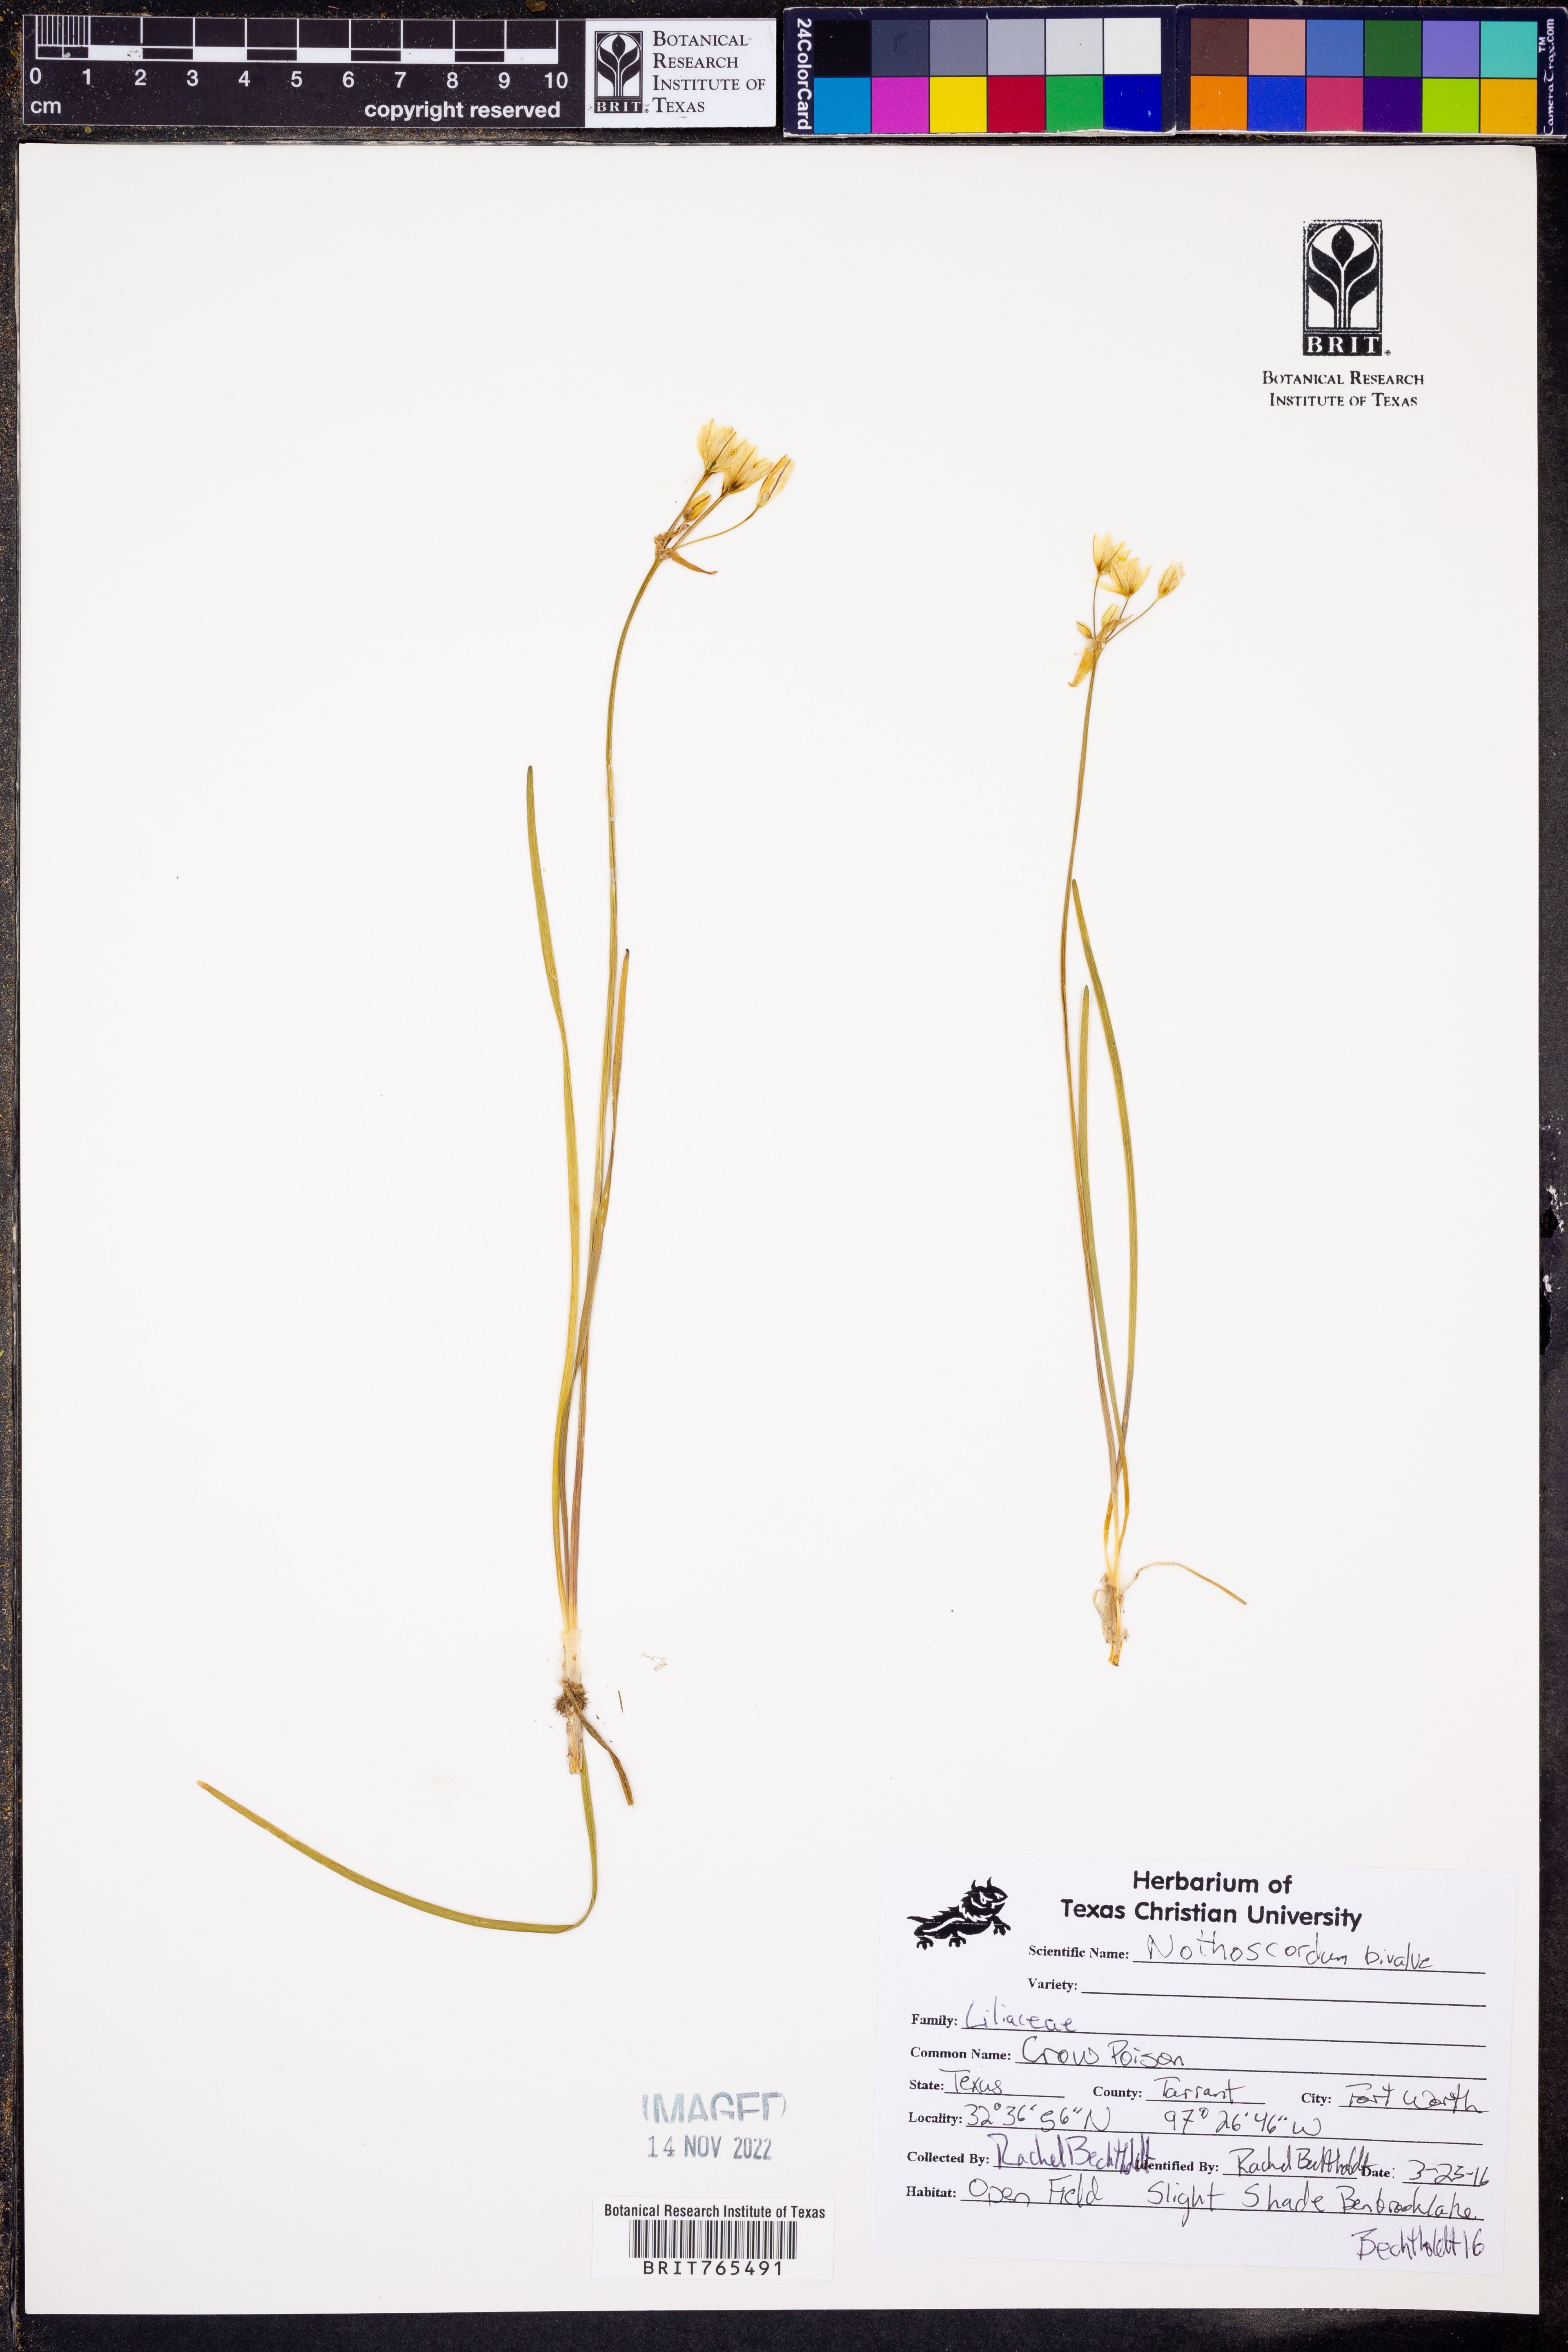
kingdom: Plantae
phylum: Tracheophyta
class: Liliopsida
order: Asparagales
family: Amaryllidaceae
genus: Nothoscordum
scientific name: Nothoscordum bivalve
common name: Crow-poison
